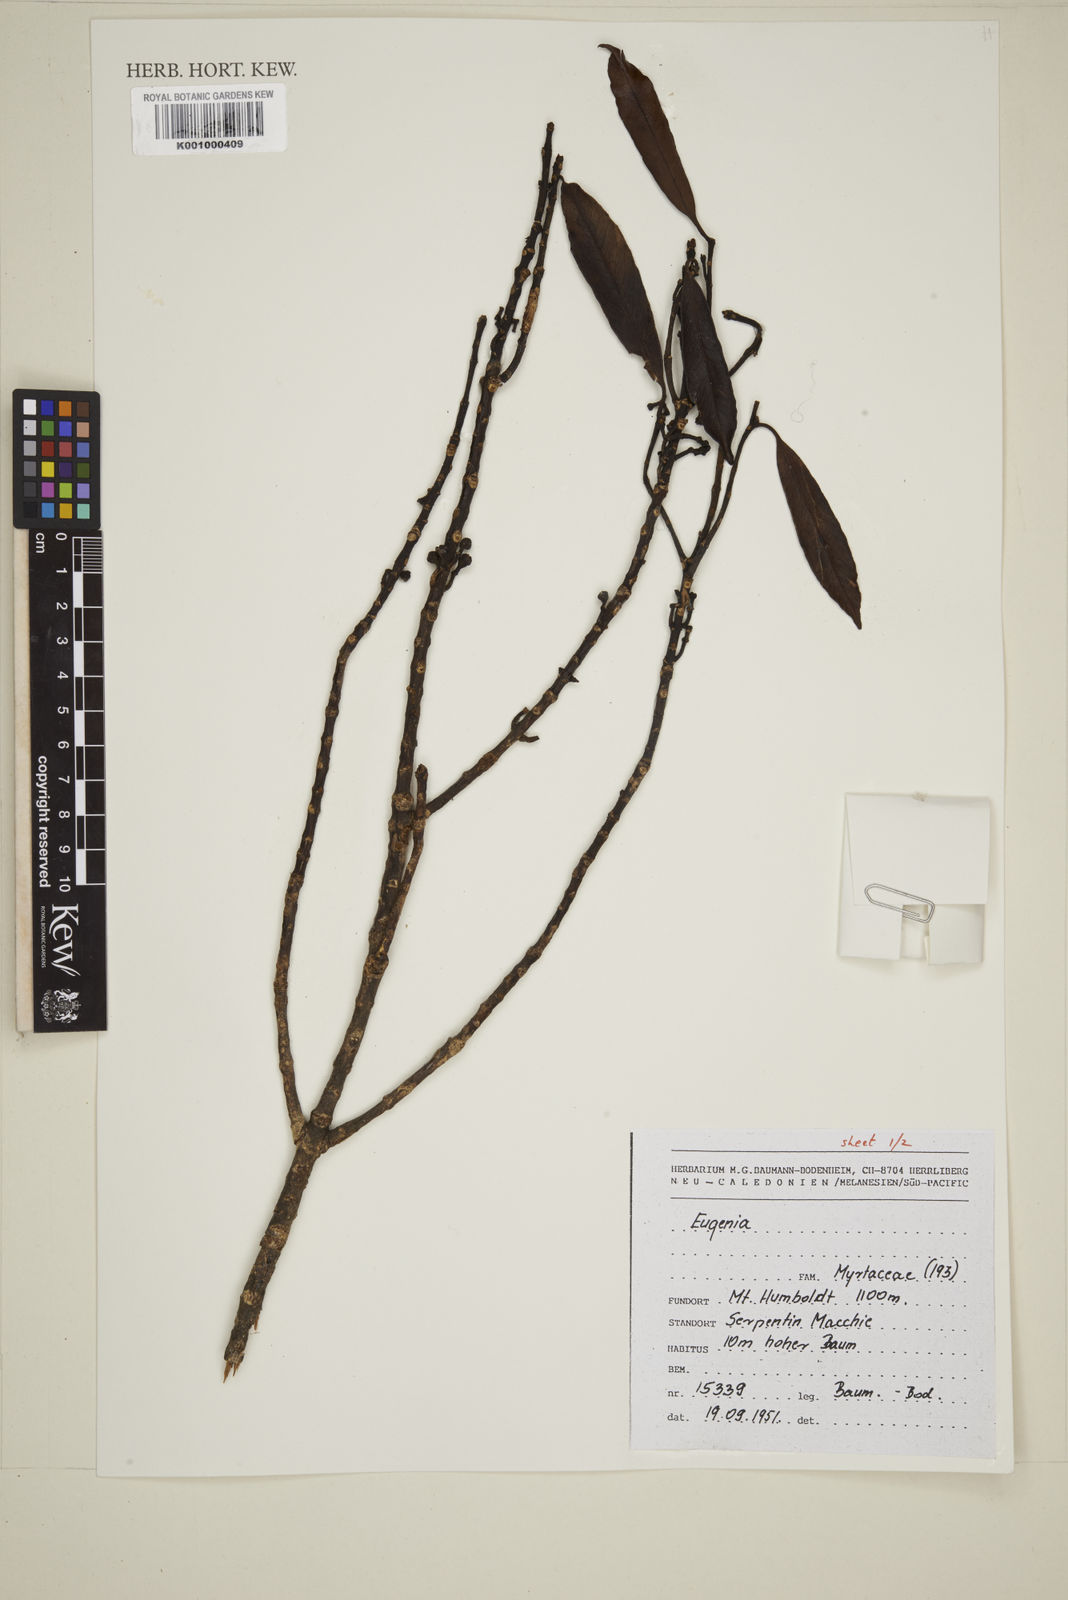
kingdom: Plantae
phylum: Tracheophyta
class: Magnoliopsida
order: Myrtales
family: Myrtaceae
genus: Eugenia
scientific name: Eugenia
